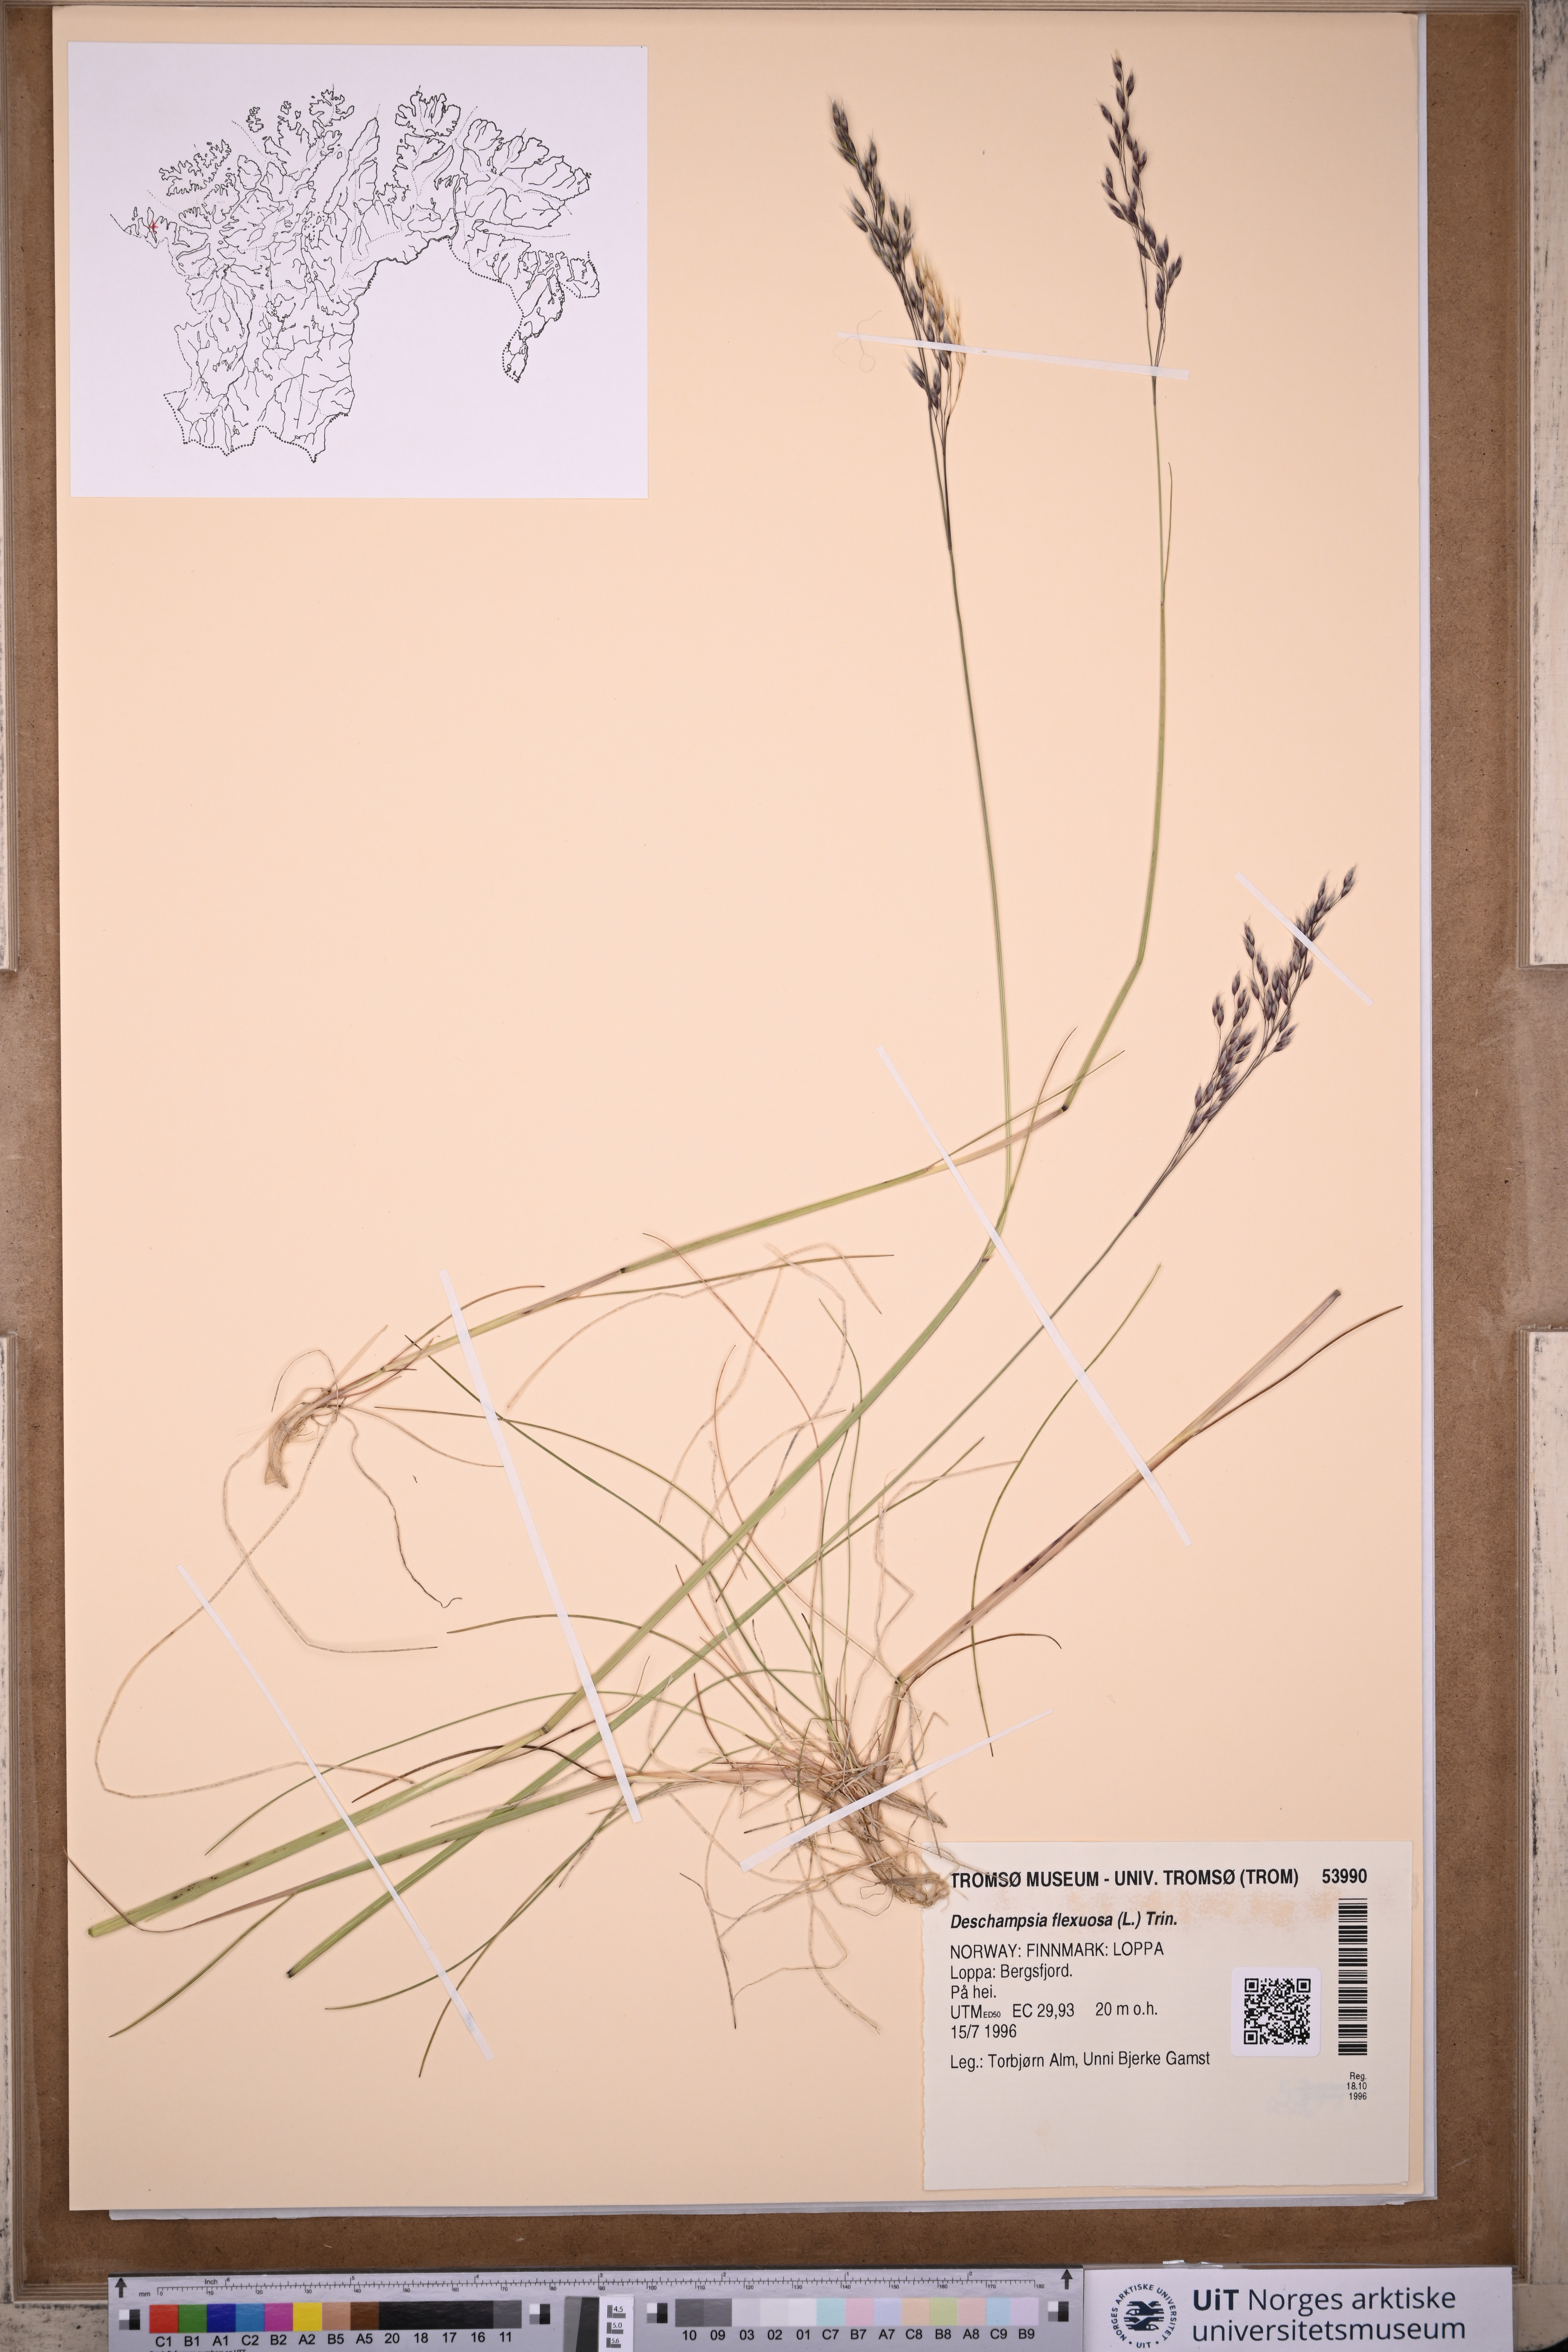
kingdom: Plantae
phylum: Tracheophyta
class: Liliopsida
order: Poales
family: Poaceae
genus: Avenella
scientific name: Avenella flexuosa
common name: Wavy hairgrass
